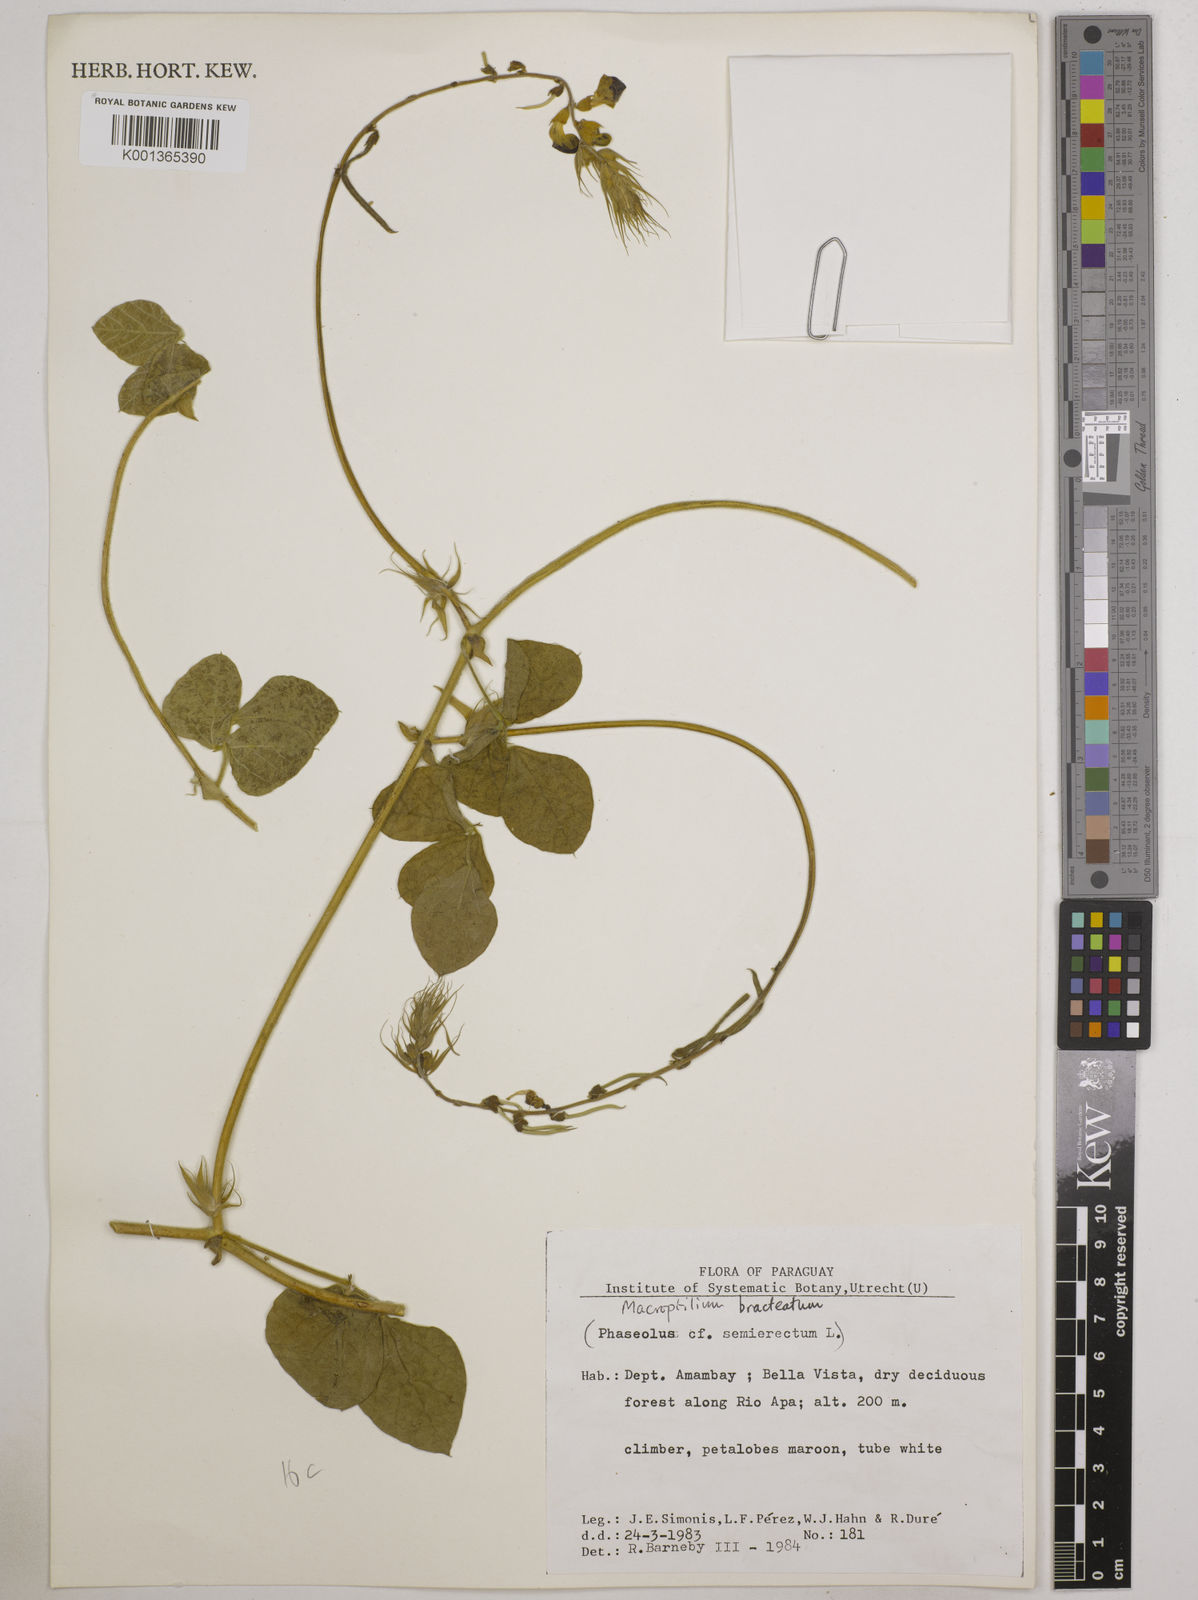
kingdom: Plantae
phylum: Tracheophyta
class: Magnoliopsida
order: Fabales
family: Fabaceae
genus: Macroptilium
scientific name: Macroptilium bracteatum
